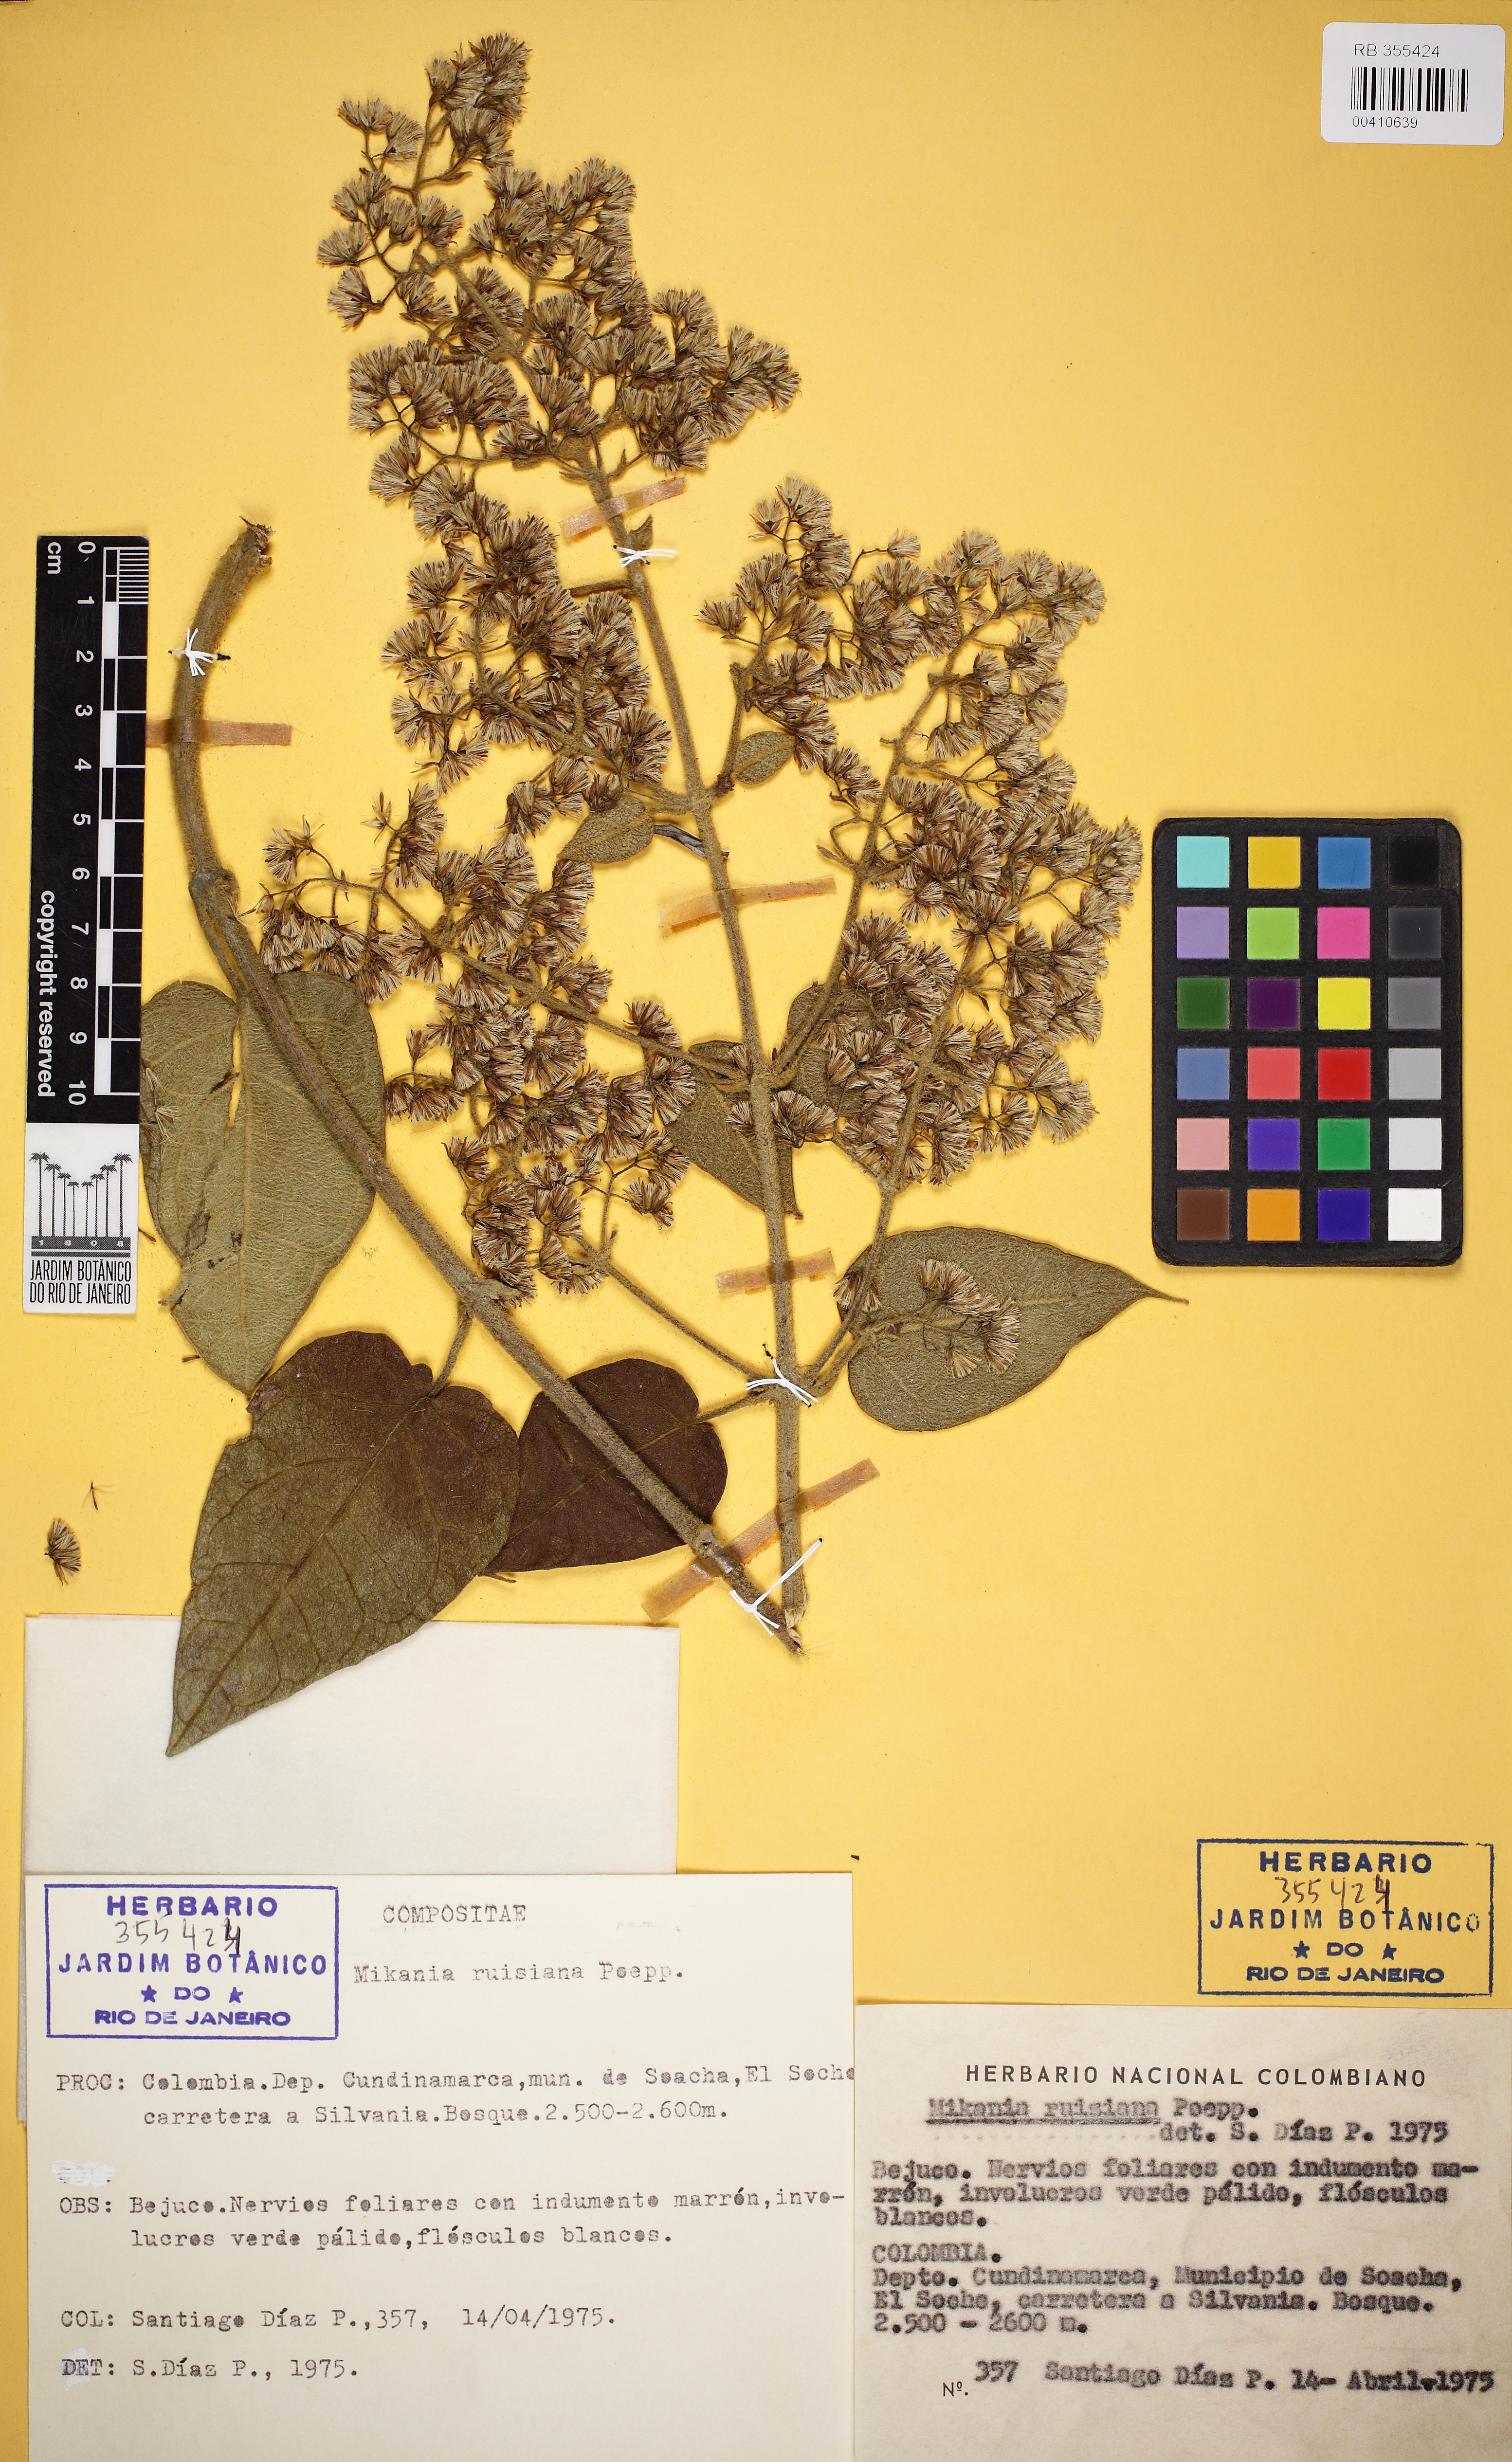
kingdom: Plantae
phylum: Tracheophyta
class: Magnoliopsida
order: Asterales
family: Asteraceae
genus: Mikania
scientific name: Mikania banisteriae
